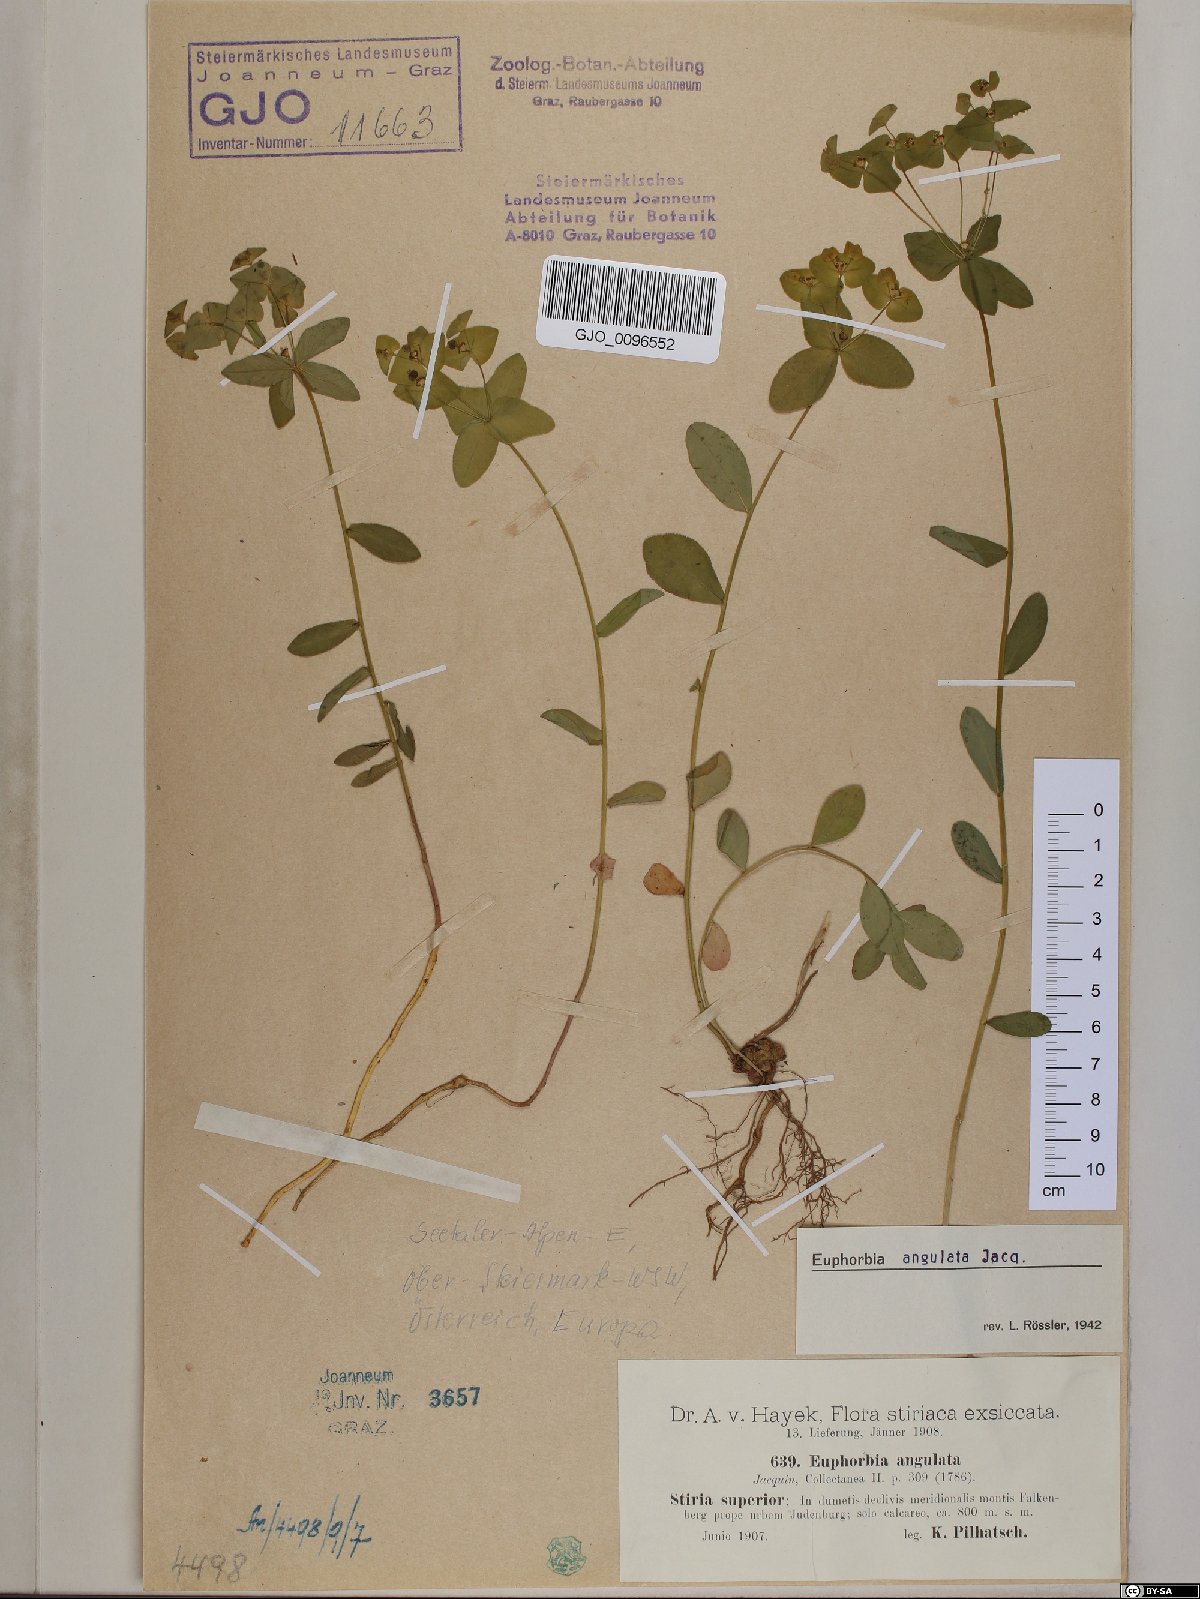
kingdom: Plantae
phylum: Tracheophyta
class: Magnoliopsida
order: Malpighiales
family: Euphorbiaceae
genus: Euphorbia
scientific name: Euphorbia angulata
